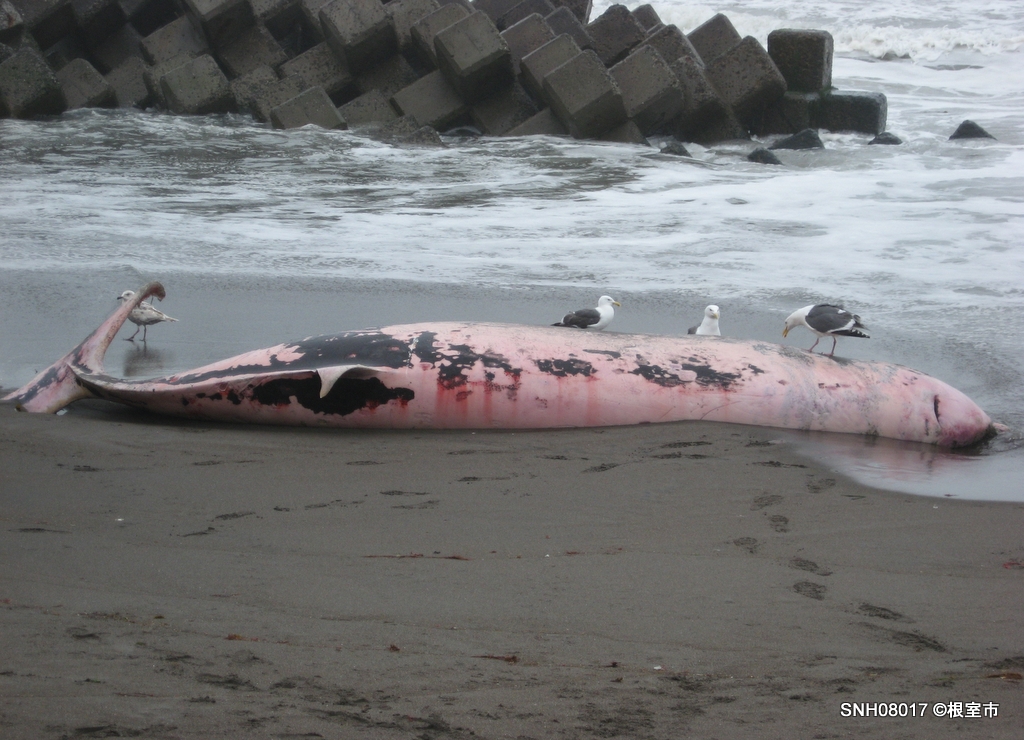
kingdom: Animalia
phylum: Chordata
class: Mammalia
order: Cetacea
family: Hyperoodontidae
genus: Ziphius
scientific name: Ziphius cavirostris
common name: Cuvier's beaked whale
